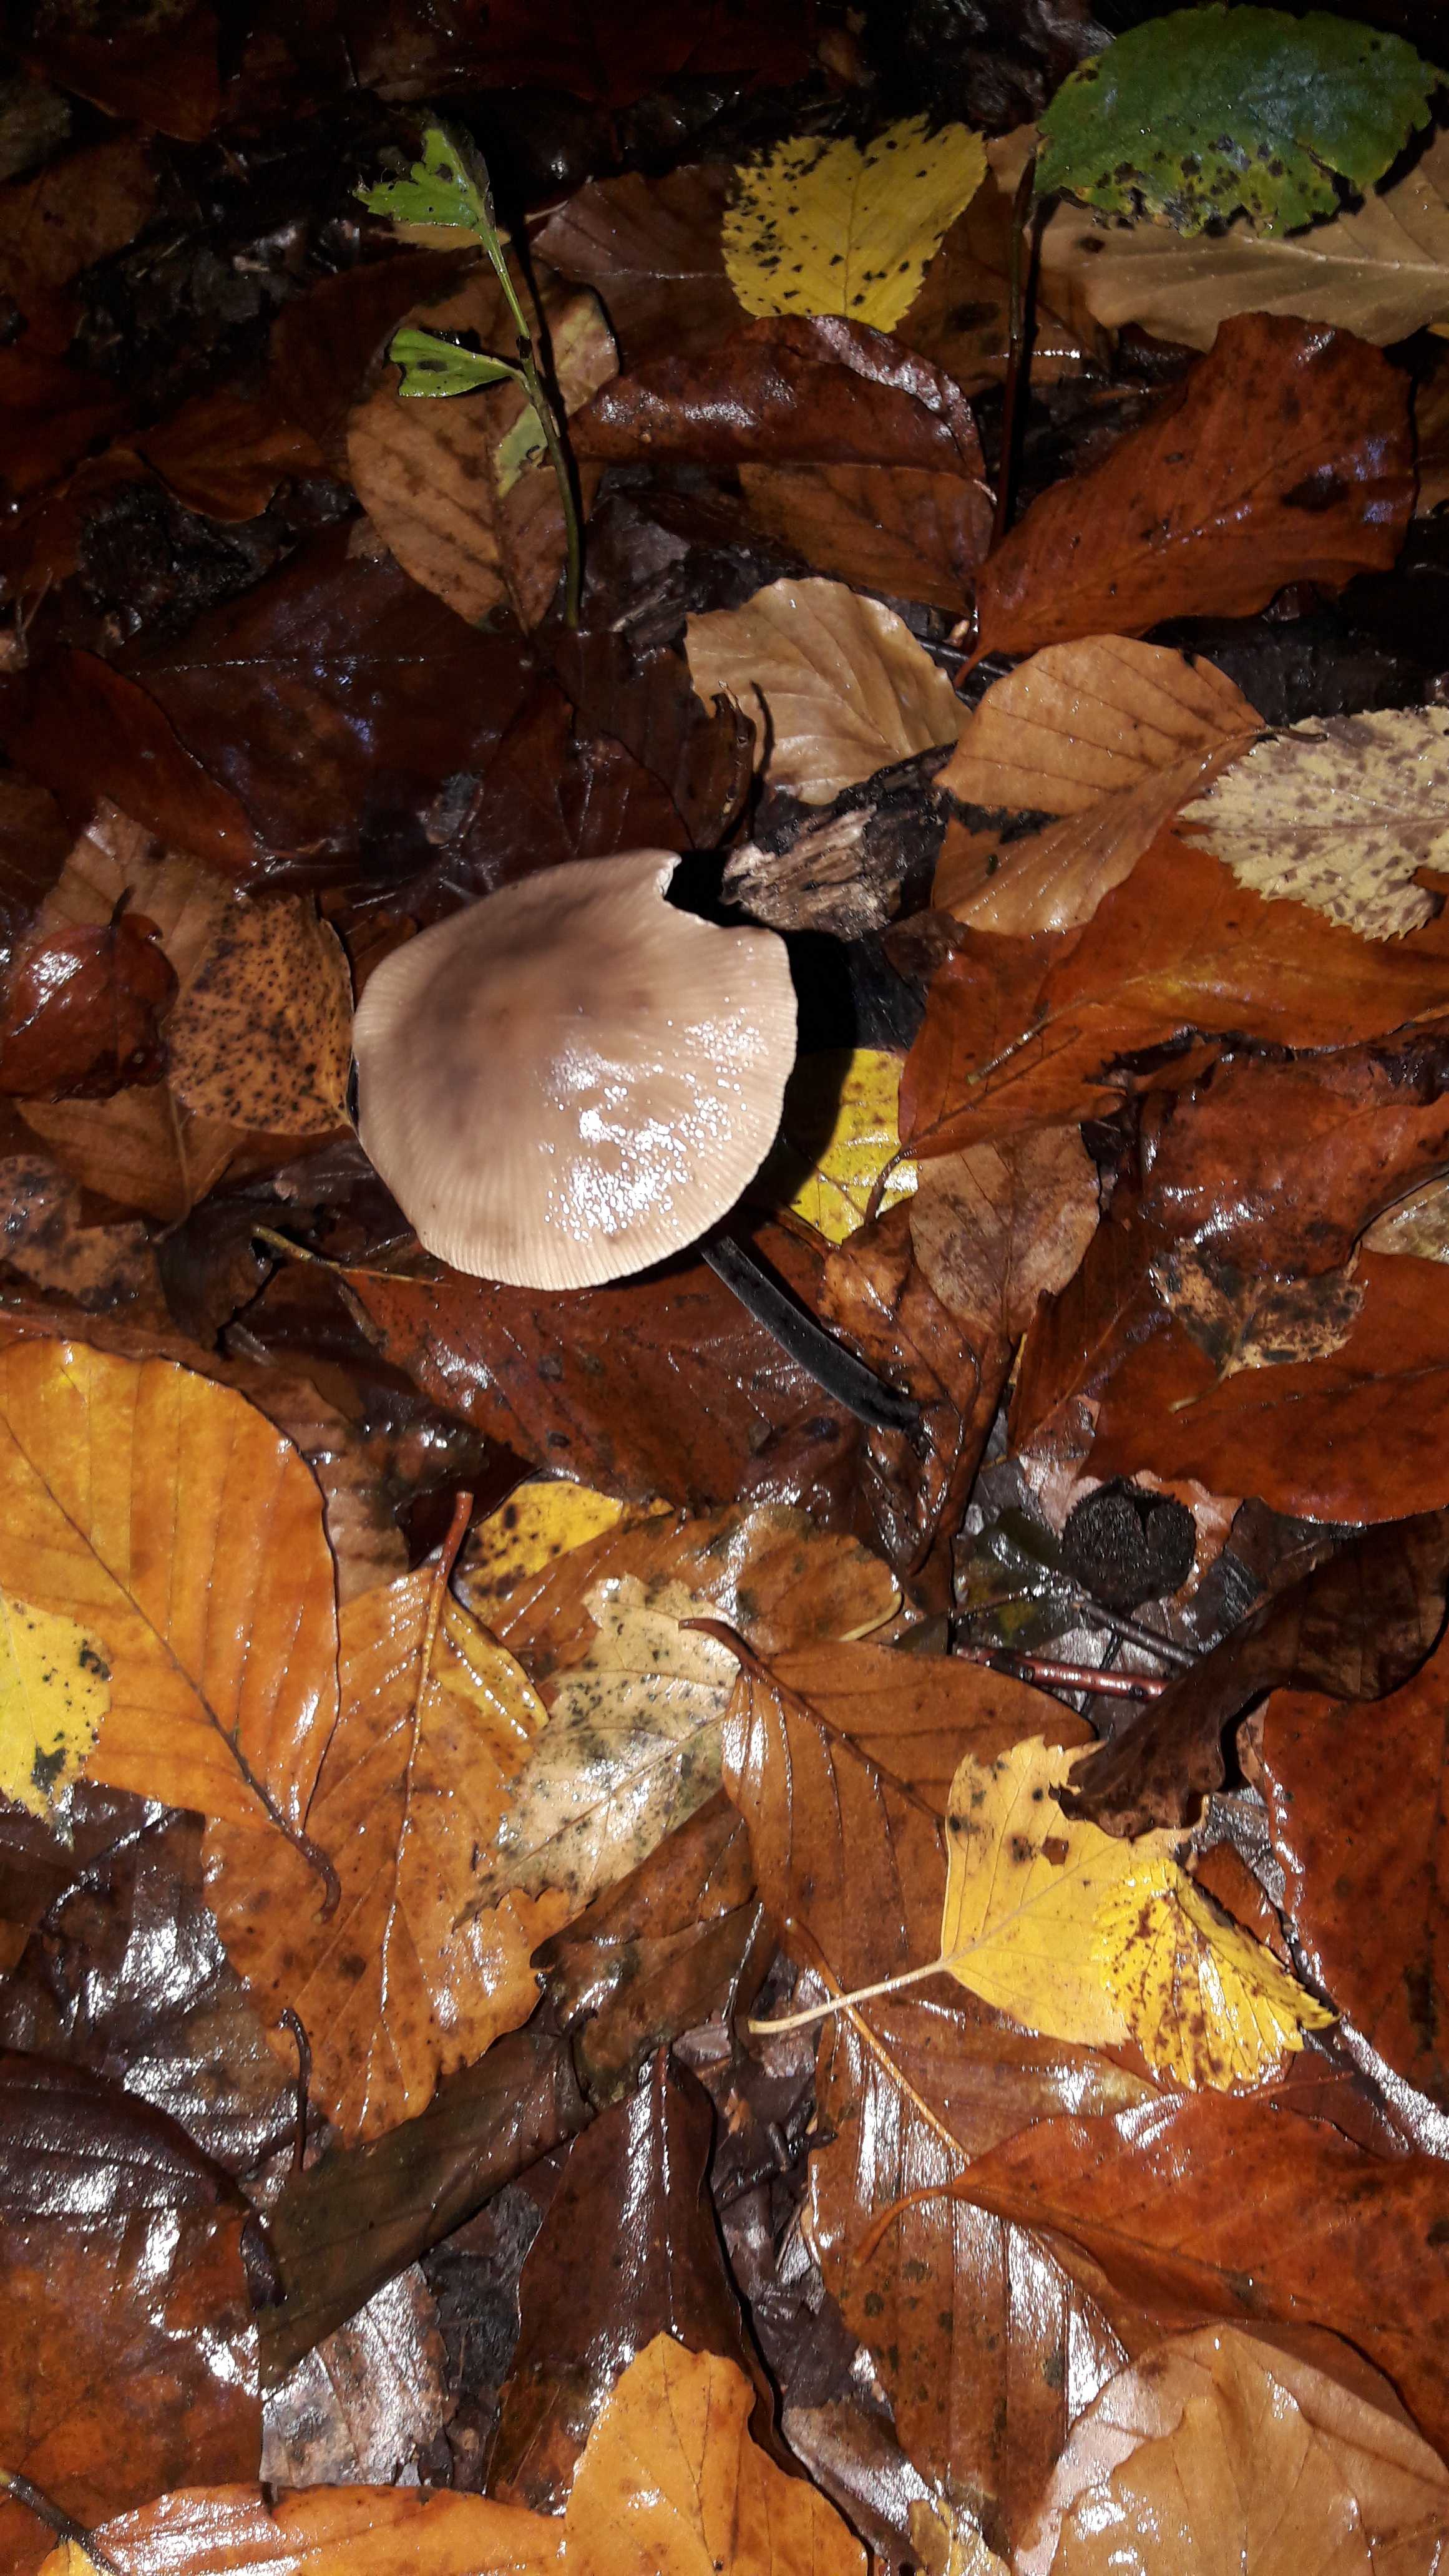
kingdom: Fungi
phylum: Basidiomycota
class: Agaricomycetes
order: Agaricales
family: Omphalotaceae
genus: Mycetinis
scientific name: Mycetinis alliaceus
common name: stor løghat
